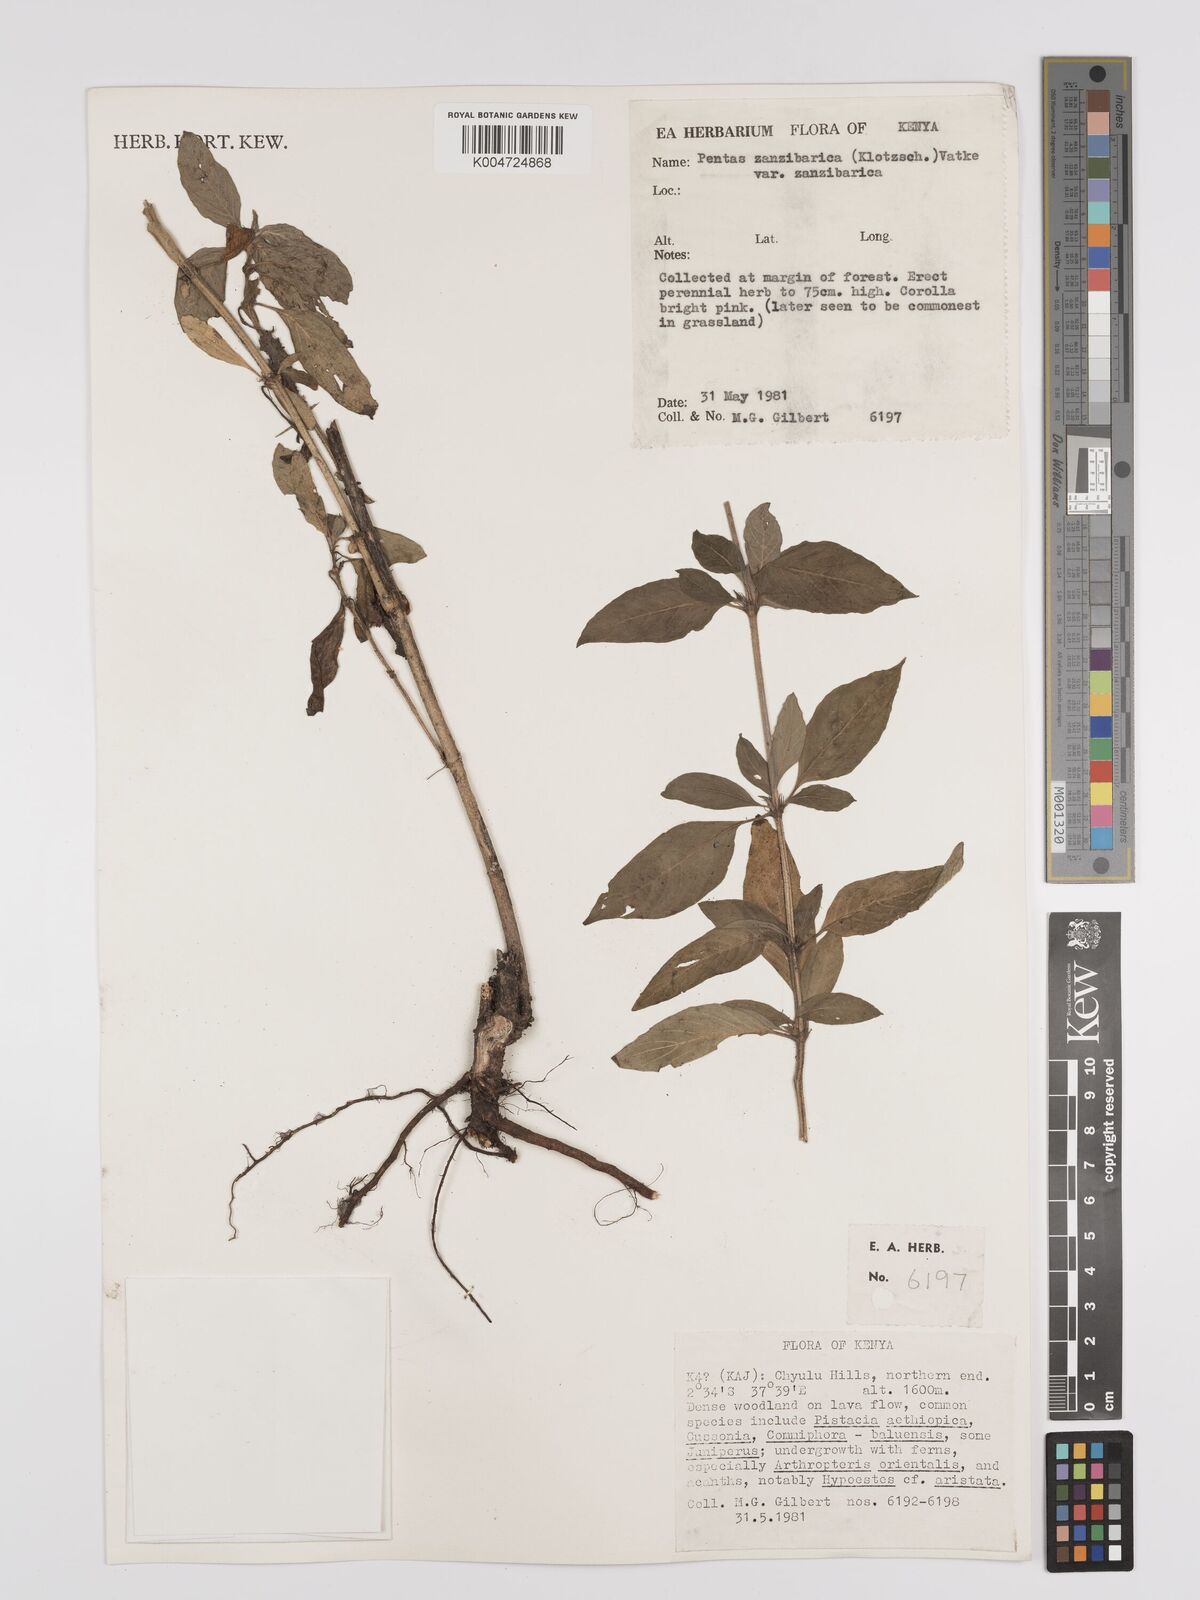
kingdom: Plantae
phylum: Tracheophyta
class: Magnoliopsida
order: Gentianales
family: Rubiaceae
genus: Pentas
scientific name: Pentas zanzibarica
